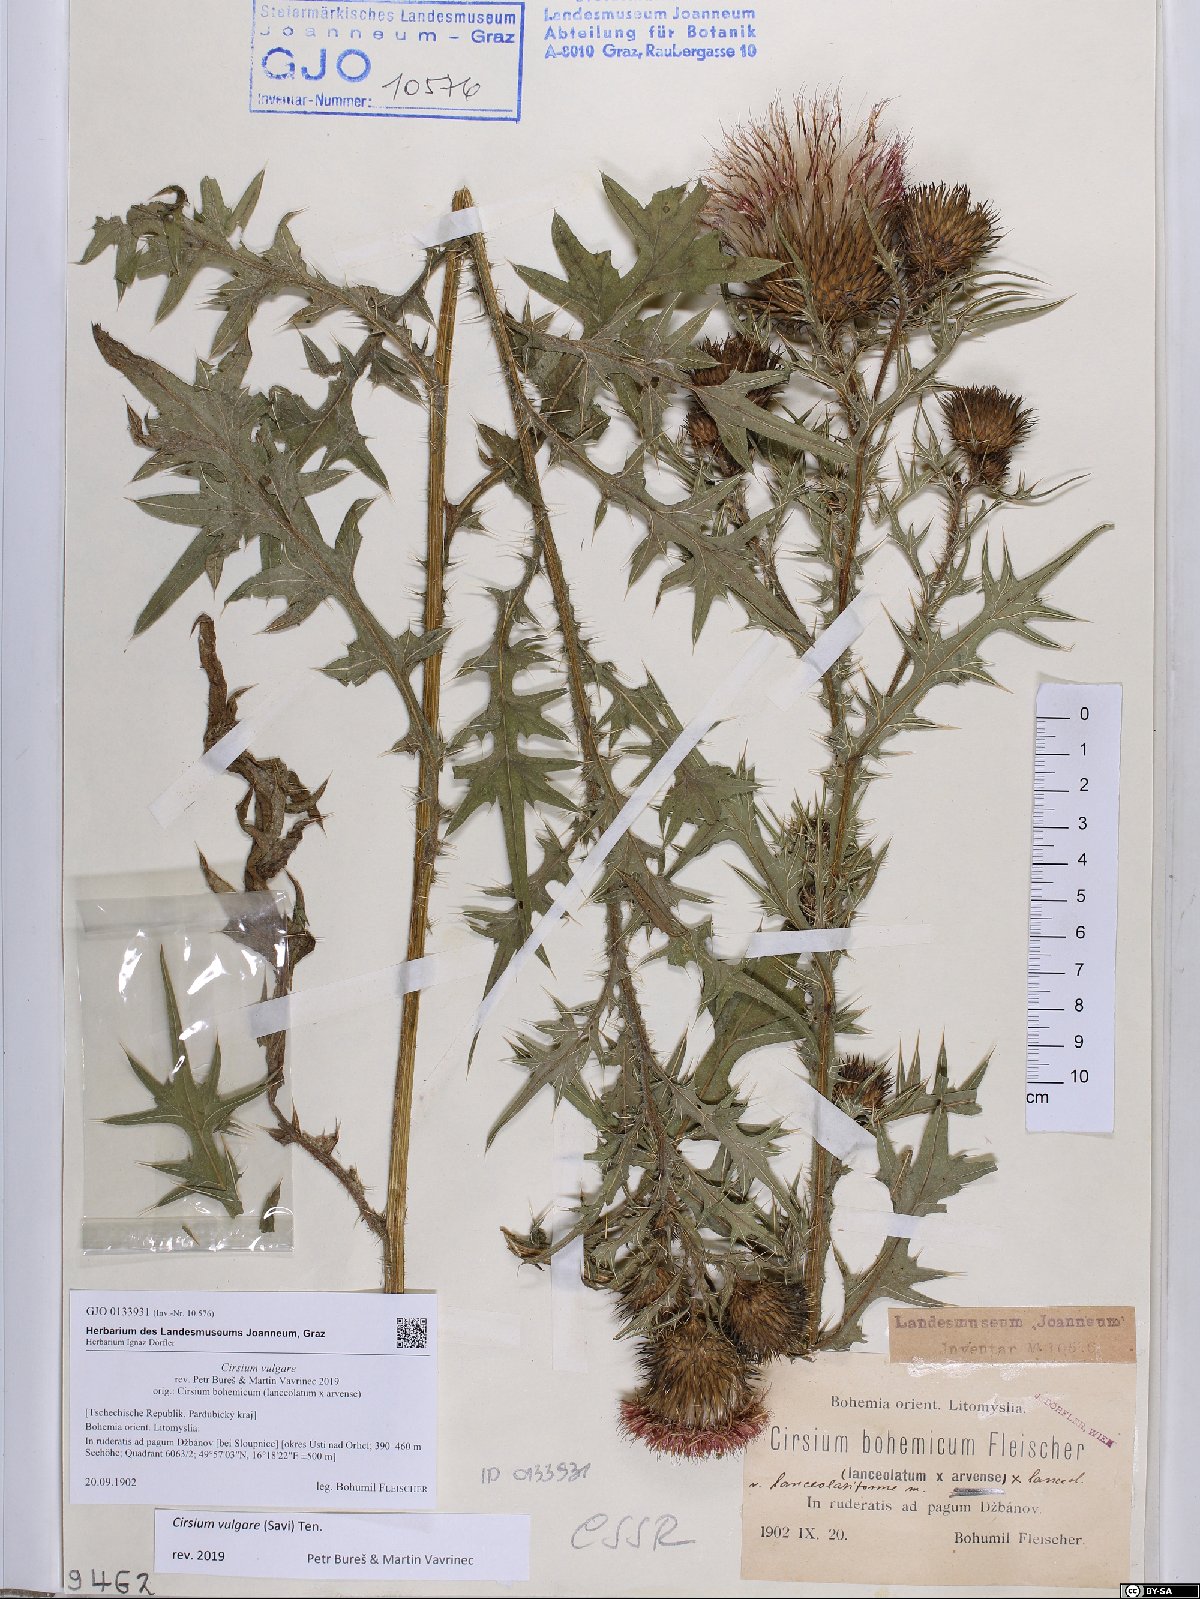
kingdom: Plantae
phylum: Tracheophyta
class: Magnoliopsida
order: Asterales
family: Asteraceae
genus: Cirsium
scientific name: Cirsium vulgare
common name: Bull thistle
